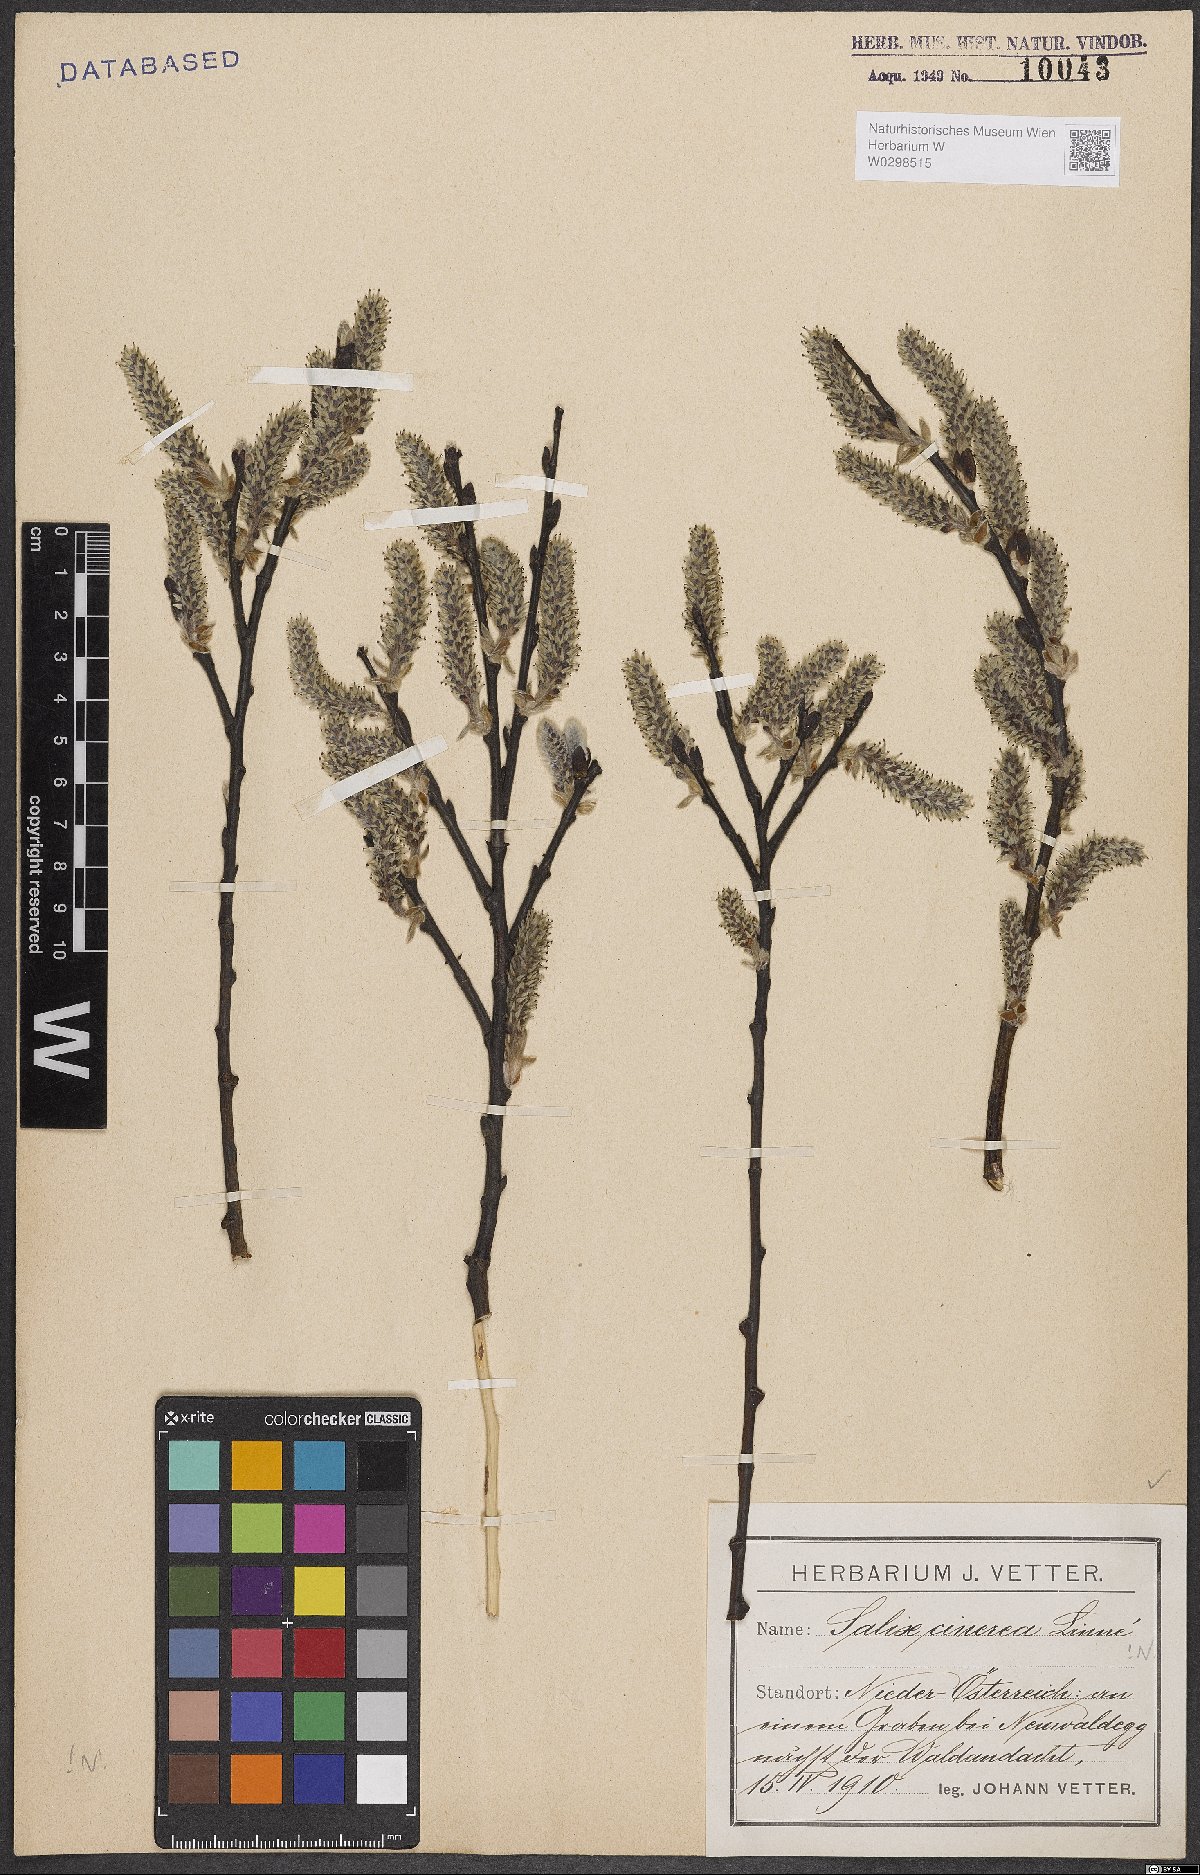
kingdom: Plantae
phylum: Tracheophyta
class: Magnoliopsida
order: Malpighiales
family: Salicaceae
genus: Salix
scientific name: Salix cinerea
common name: Common sallow
